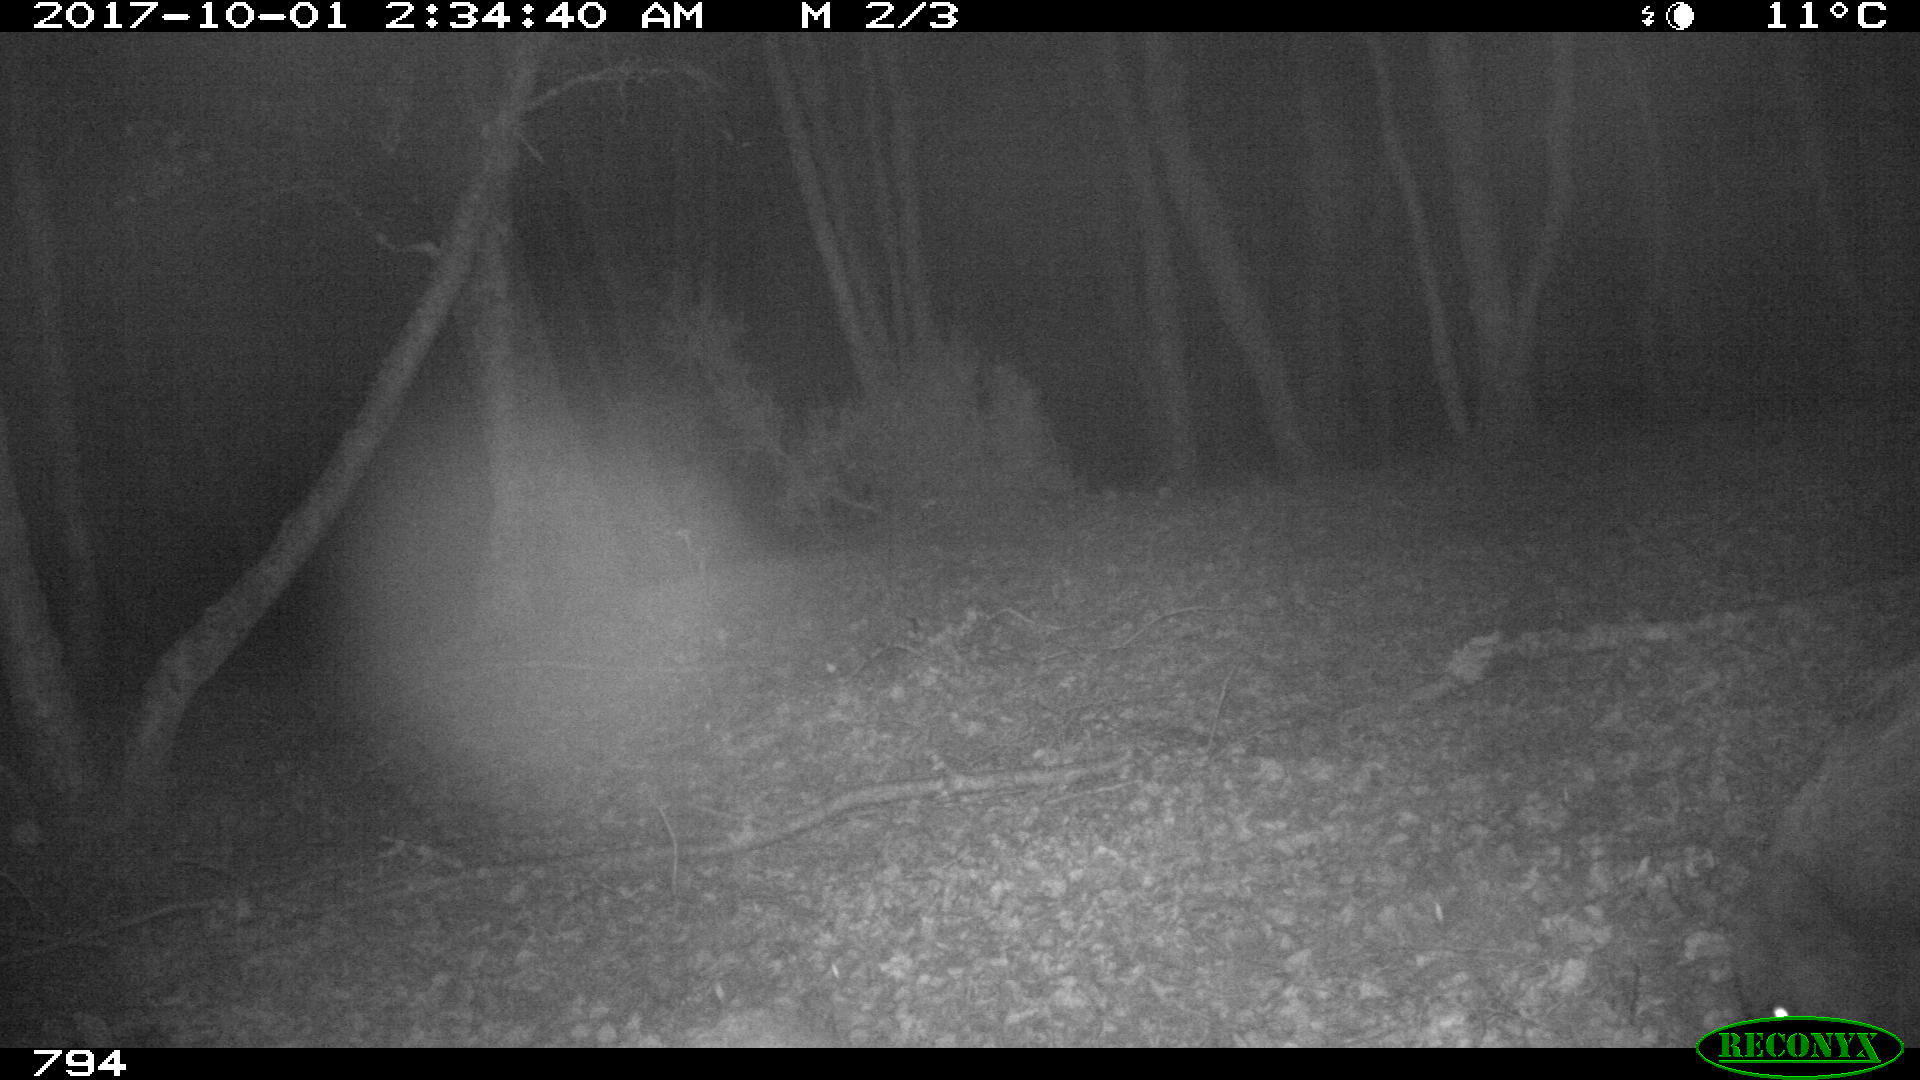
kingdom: Animalia
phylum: Chordata
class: Mammalia
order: Artiodactyla
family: Suidae
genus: Sus
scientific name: Sus scrofa
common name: Wild boar
